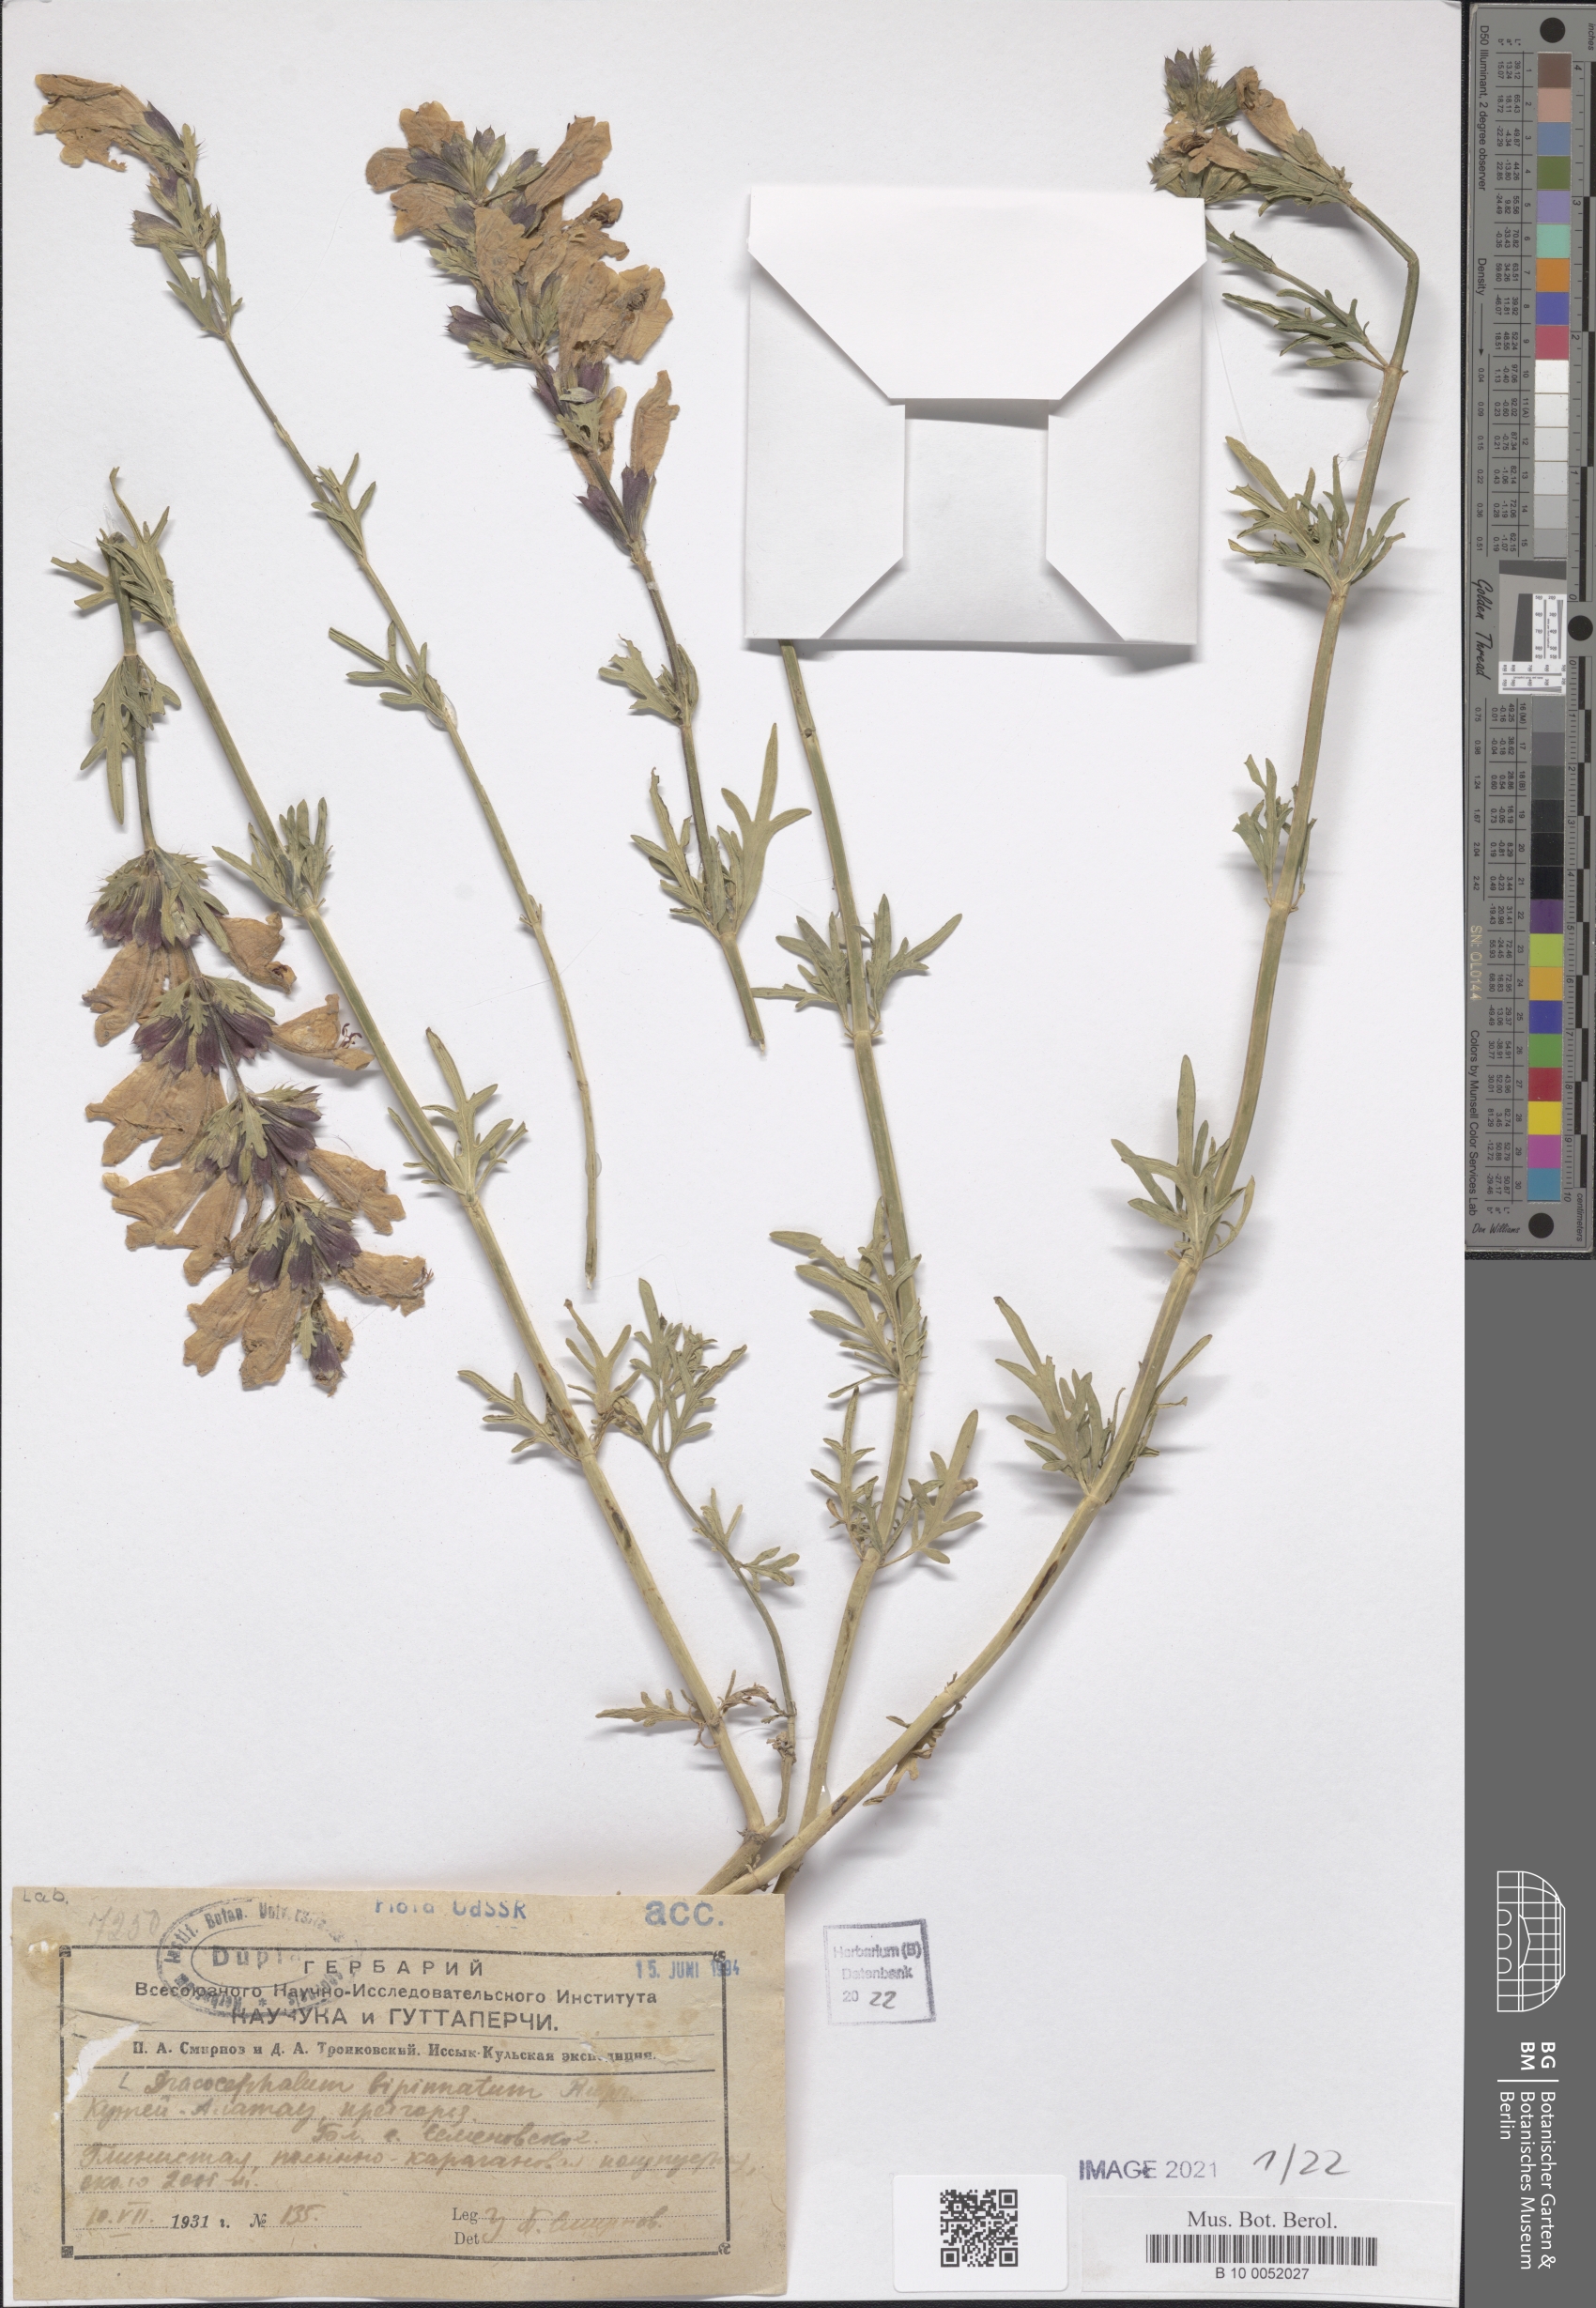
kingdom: Plantae
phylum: Tracheophyta
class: Magnoliopsida
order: Lamiales
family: Lamiaceae
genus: Dracocephalum
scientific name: Dracocephalum bipinnatum
